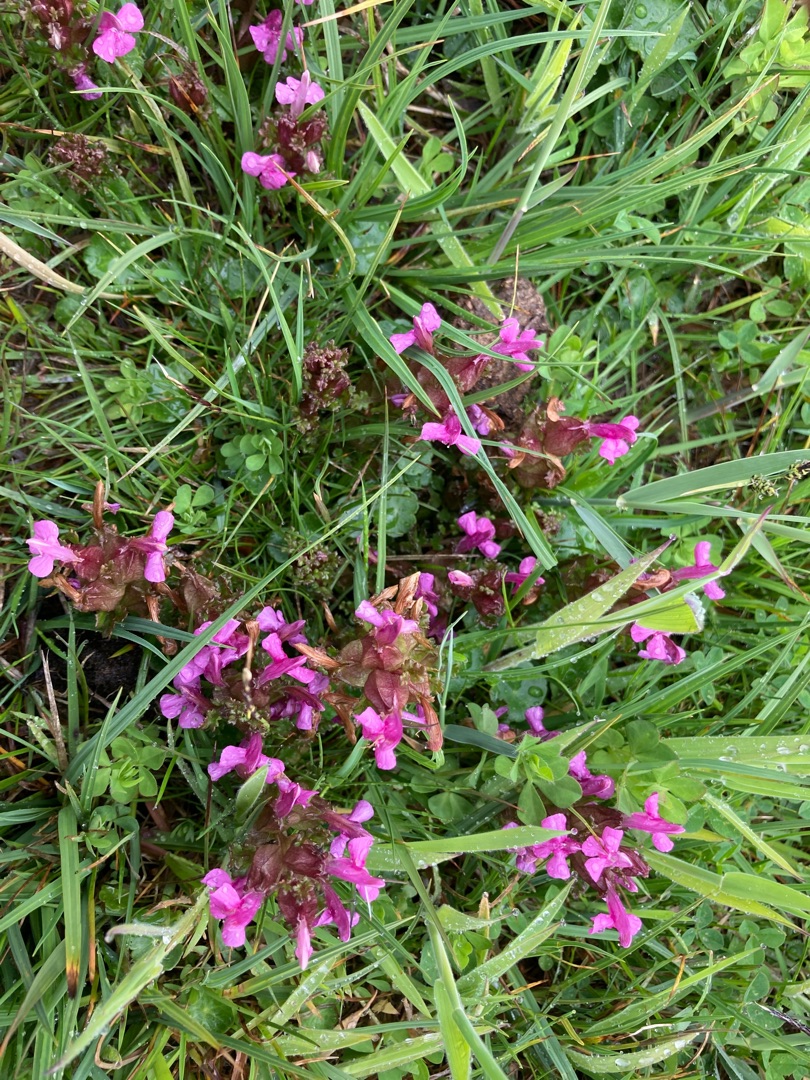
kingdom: Plantae
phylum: Tracheophyta
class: Magnoliopsida
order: Lamiales
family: Orobanchaceae
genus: Pedicularis
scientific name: Pedicularis sylvatica
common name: Mose-troldurt
